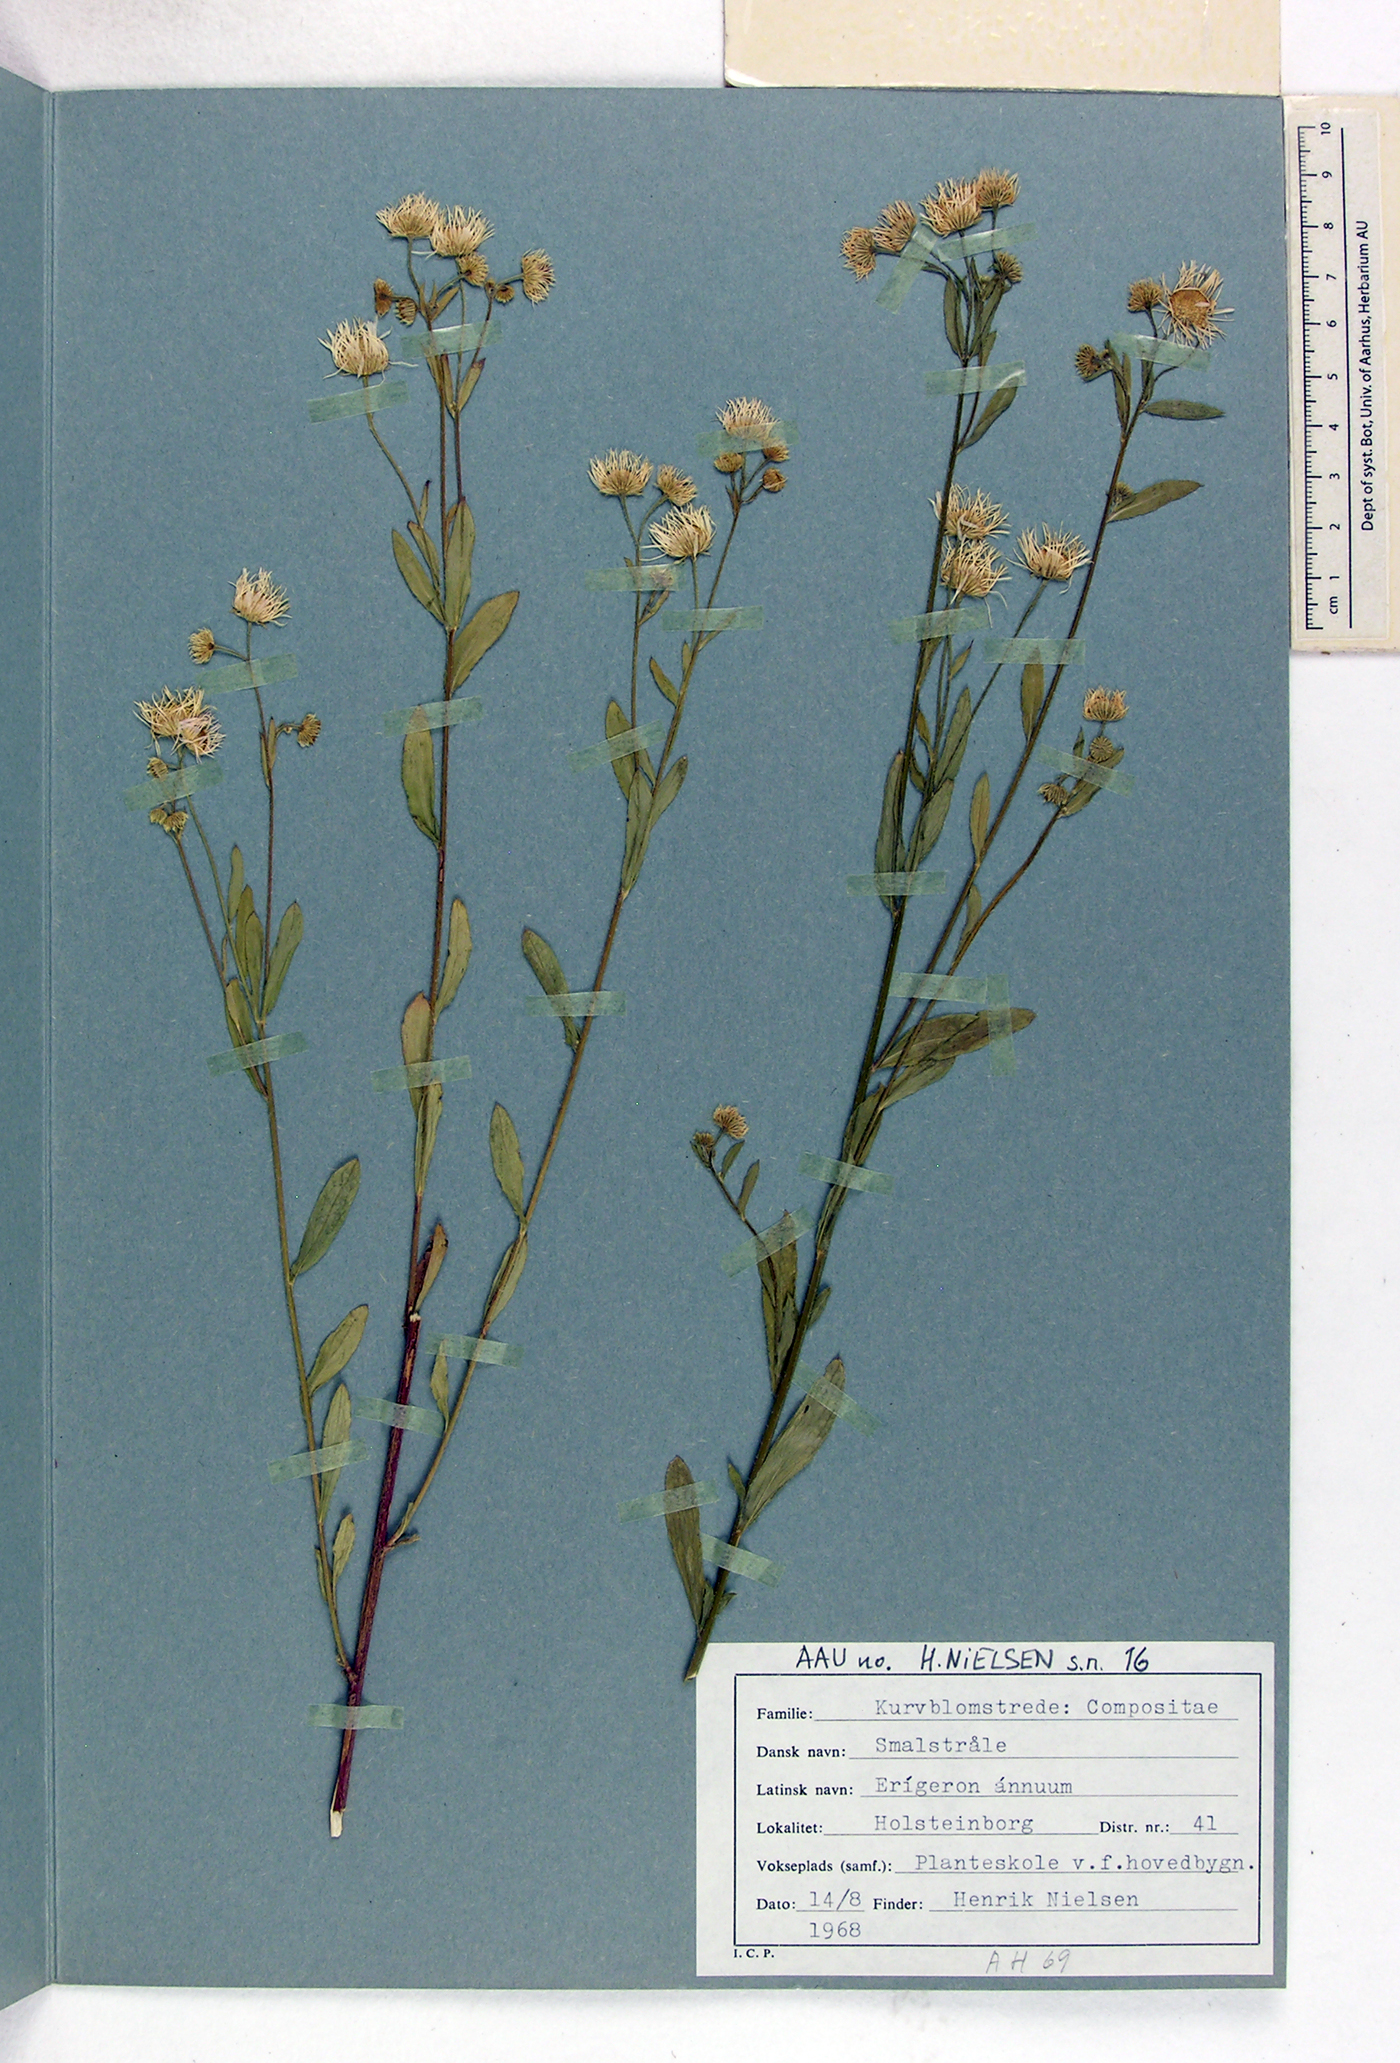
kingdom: Plantae
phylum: Tracheophyta
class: Magnoliopsida
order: Asterales
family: Asteraceae
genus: Erigeron
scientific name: Erigeron annuus
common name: Tall fleabane
